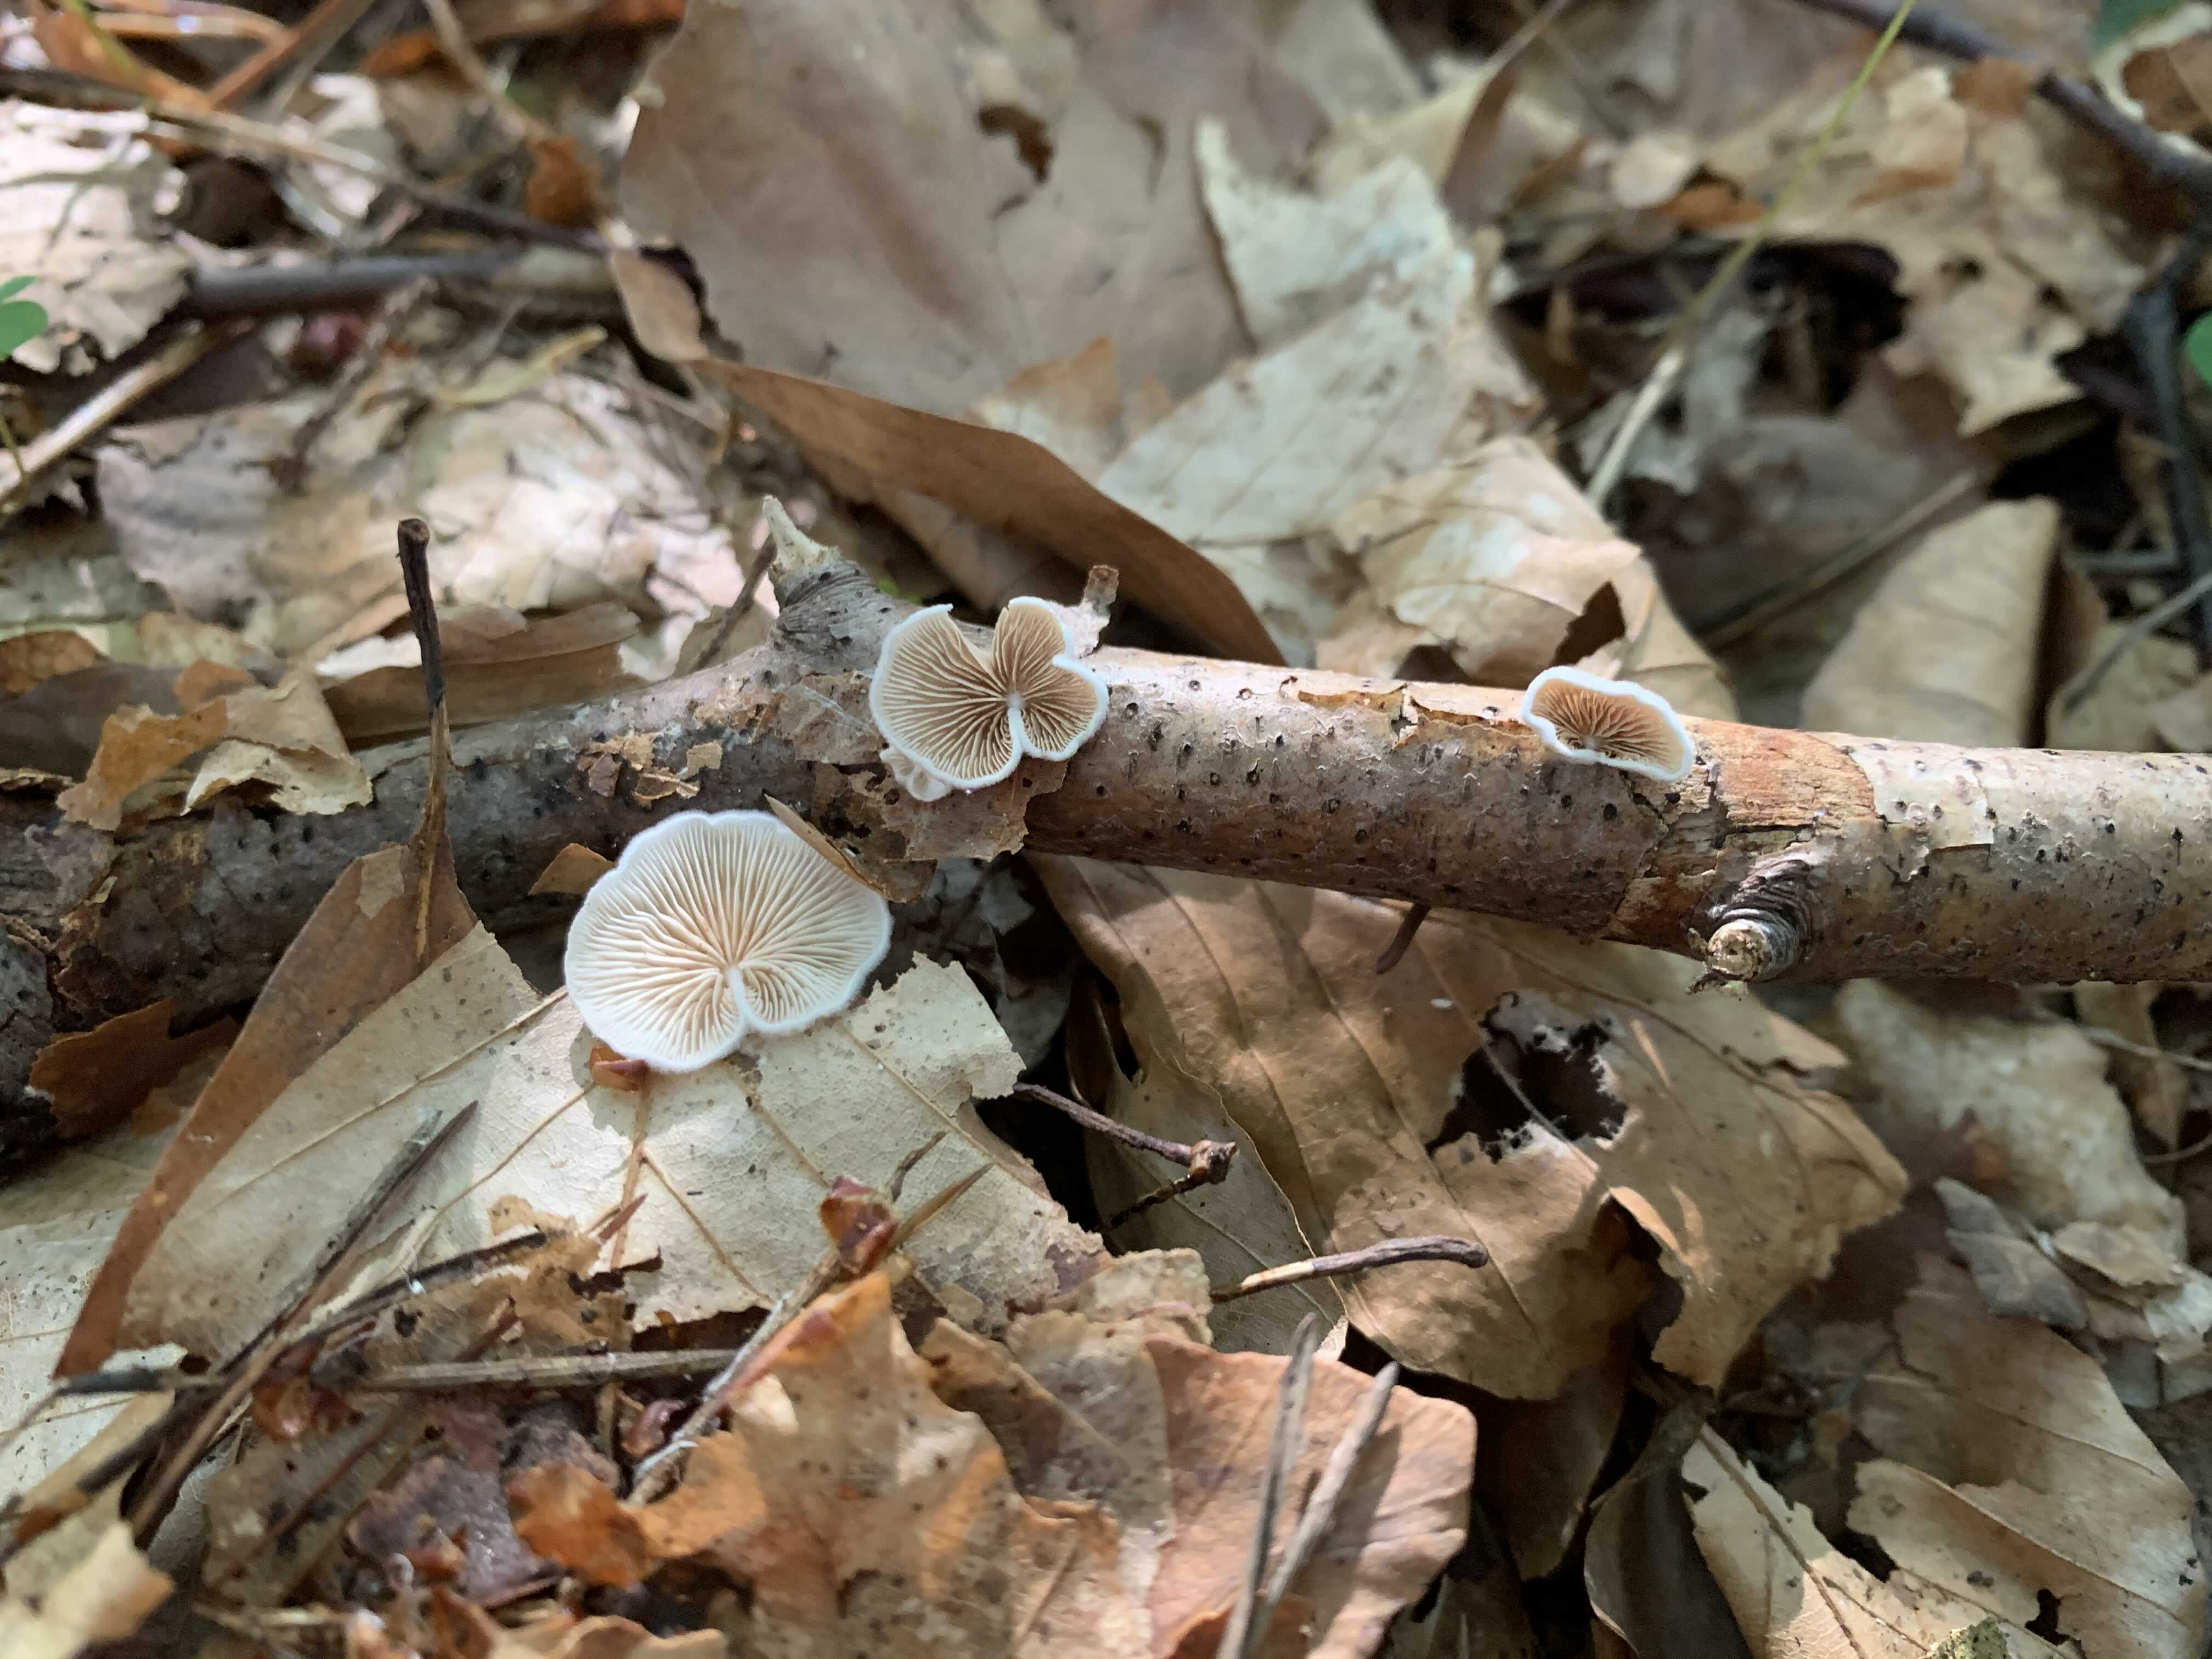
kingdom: Fungi
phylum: Basidiomycota
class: Agaricomycetes
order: Agaricales
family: Crepidotaceae
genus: Crepidotus
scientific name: Crepidotus
